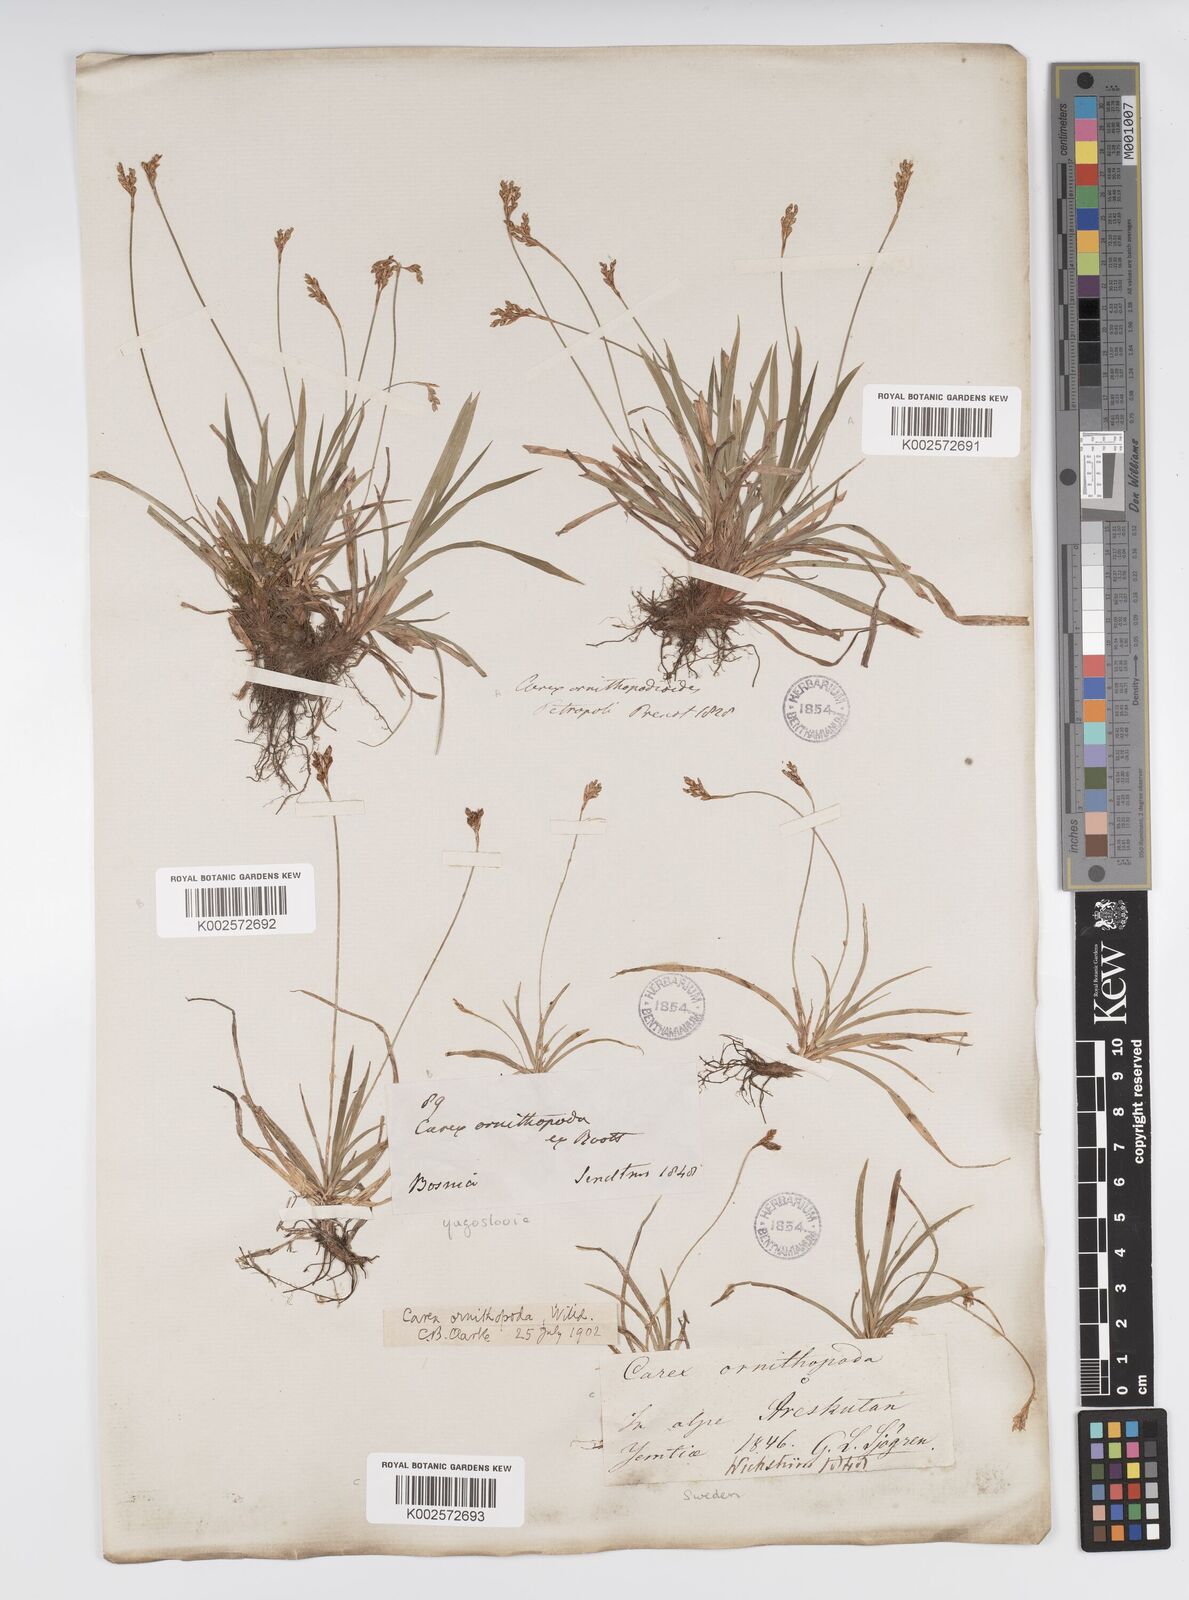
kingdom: Plantae
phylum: Tracheophyta
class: Liliopsida
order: Poales
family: Cyperaceae
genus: Carex
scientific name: Carex ornithopoda
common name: Bird's-foot sedge
